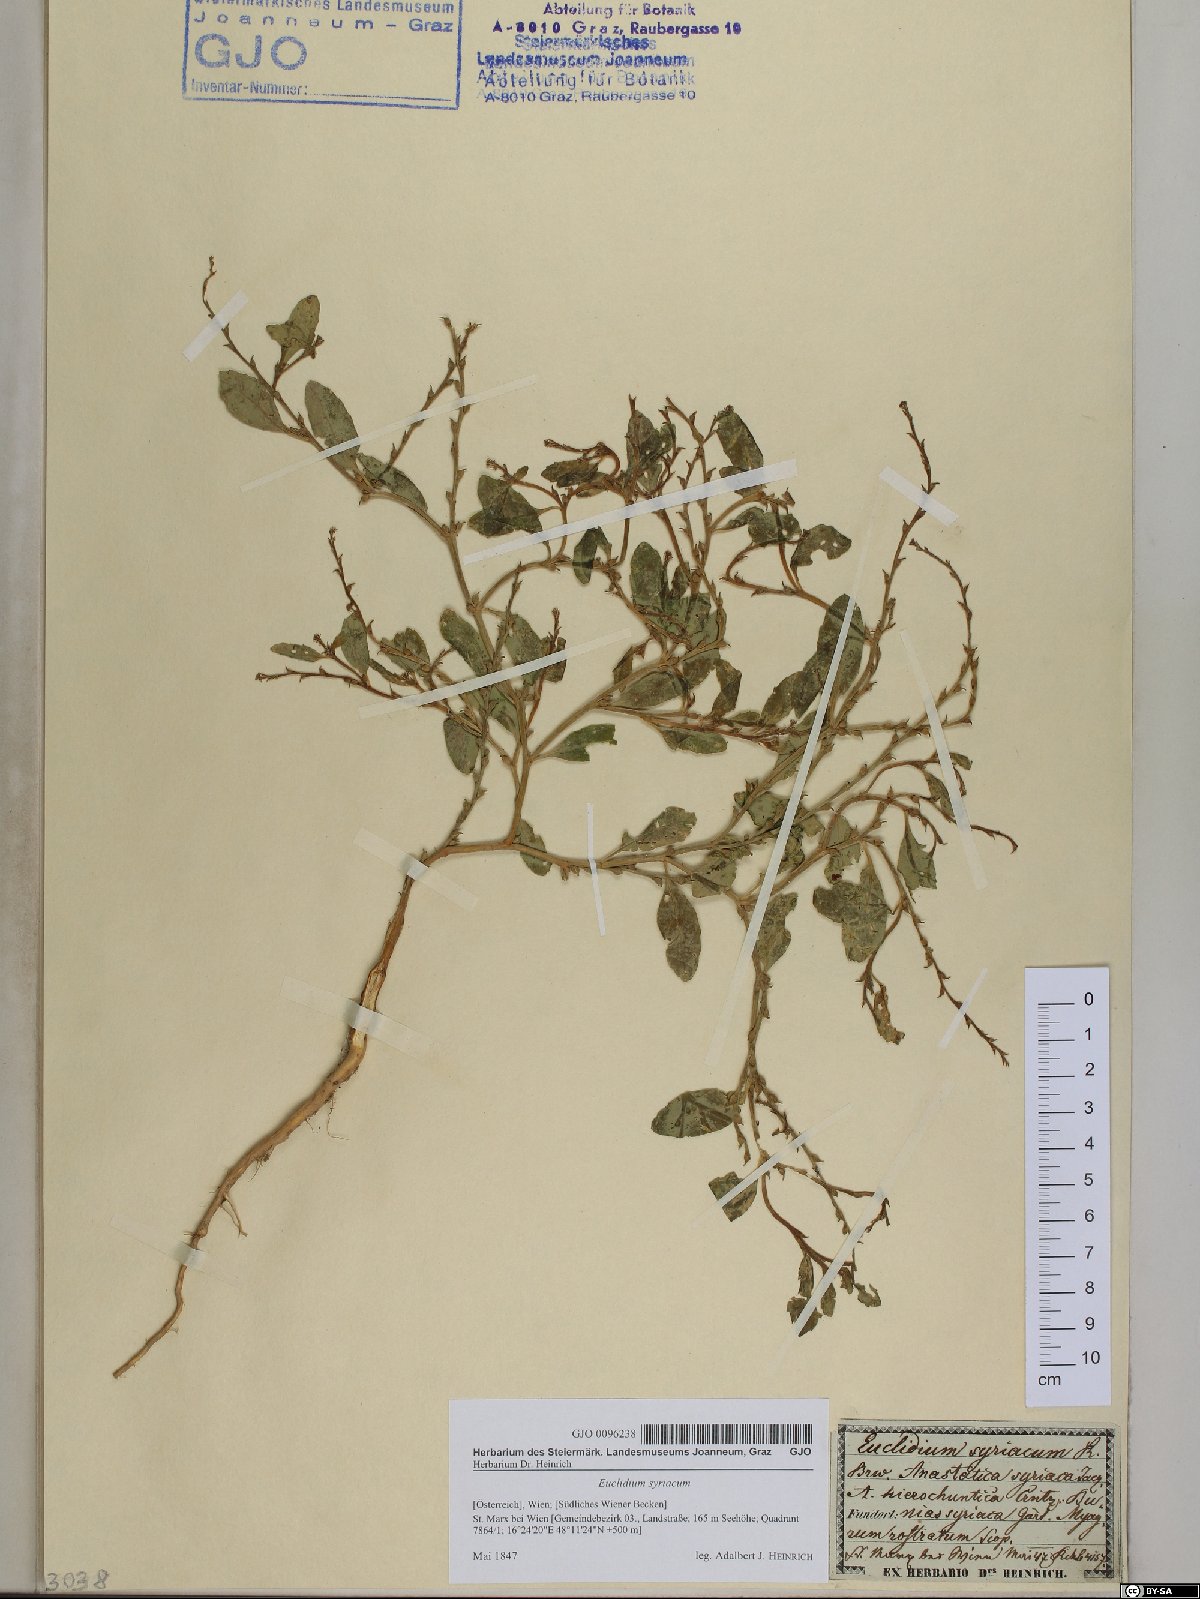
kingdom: Plantae
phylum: Tracheophyta
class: Magnoliopsida
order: Brassicales
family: Brassicaceae
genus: Euclidium
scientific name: Euclidium syriacum
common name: Syrian mustard
